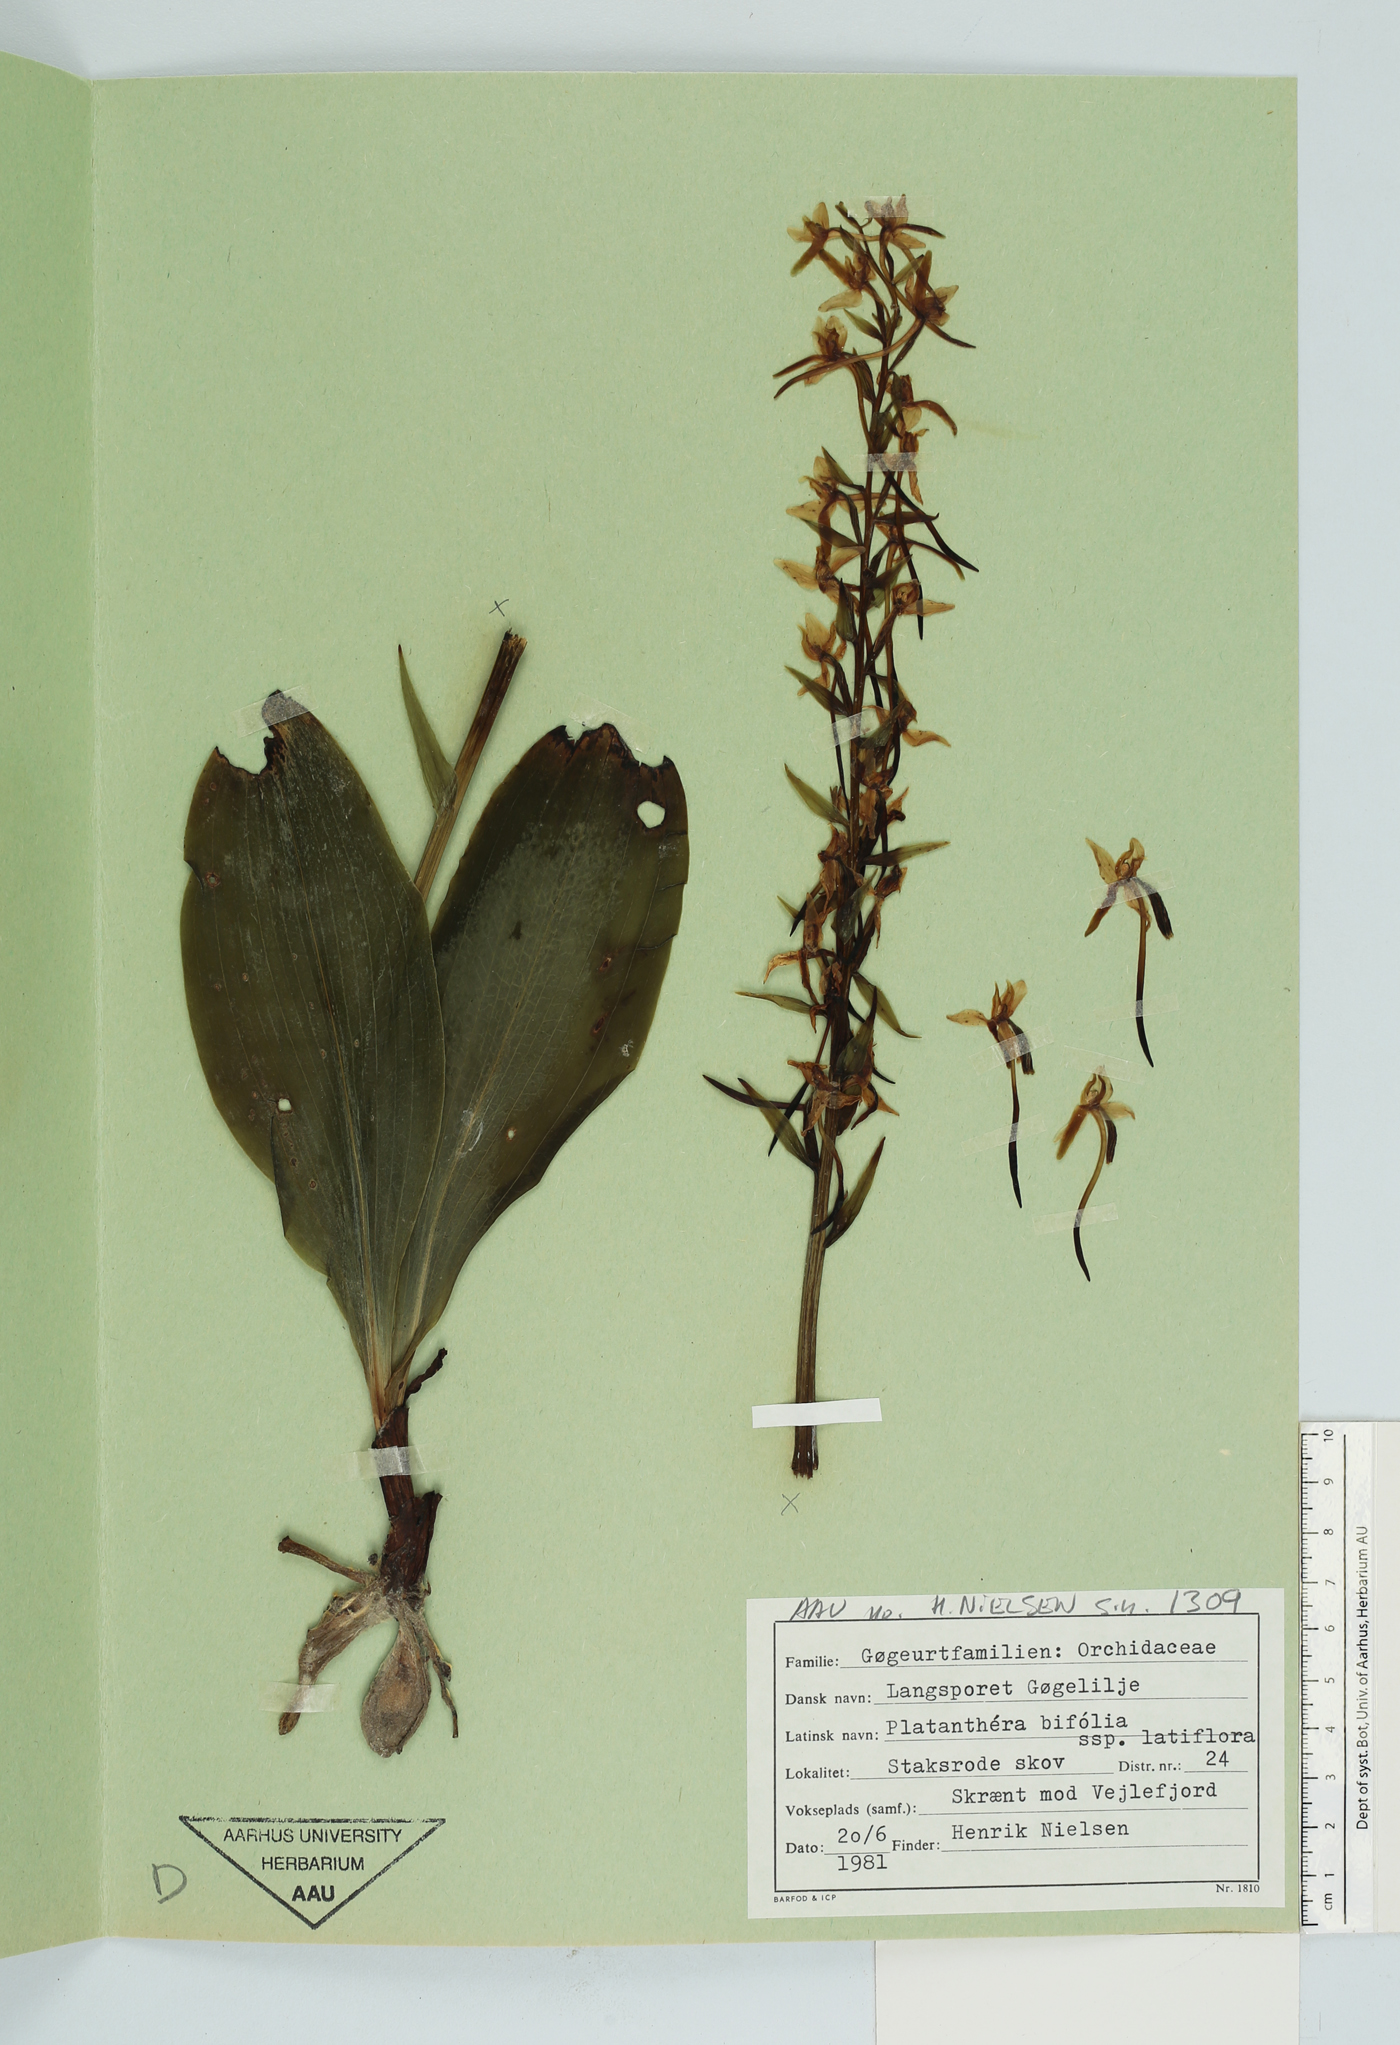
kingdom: Plantae
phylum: Tracheophyta
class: Liliopsida
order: Asparagales
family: Orchidaceae
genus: Platanthera
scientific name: Platanthera bifolia
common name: Lesser butterfly-orchid
